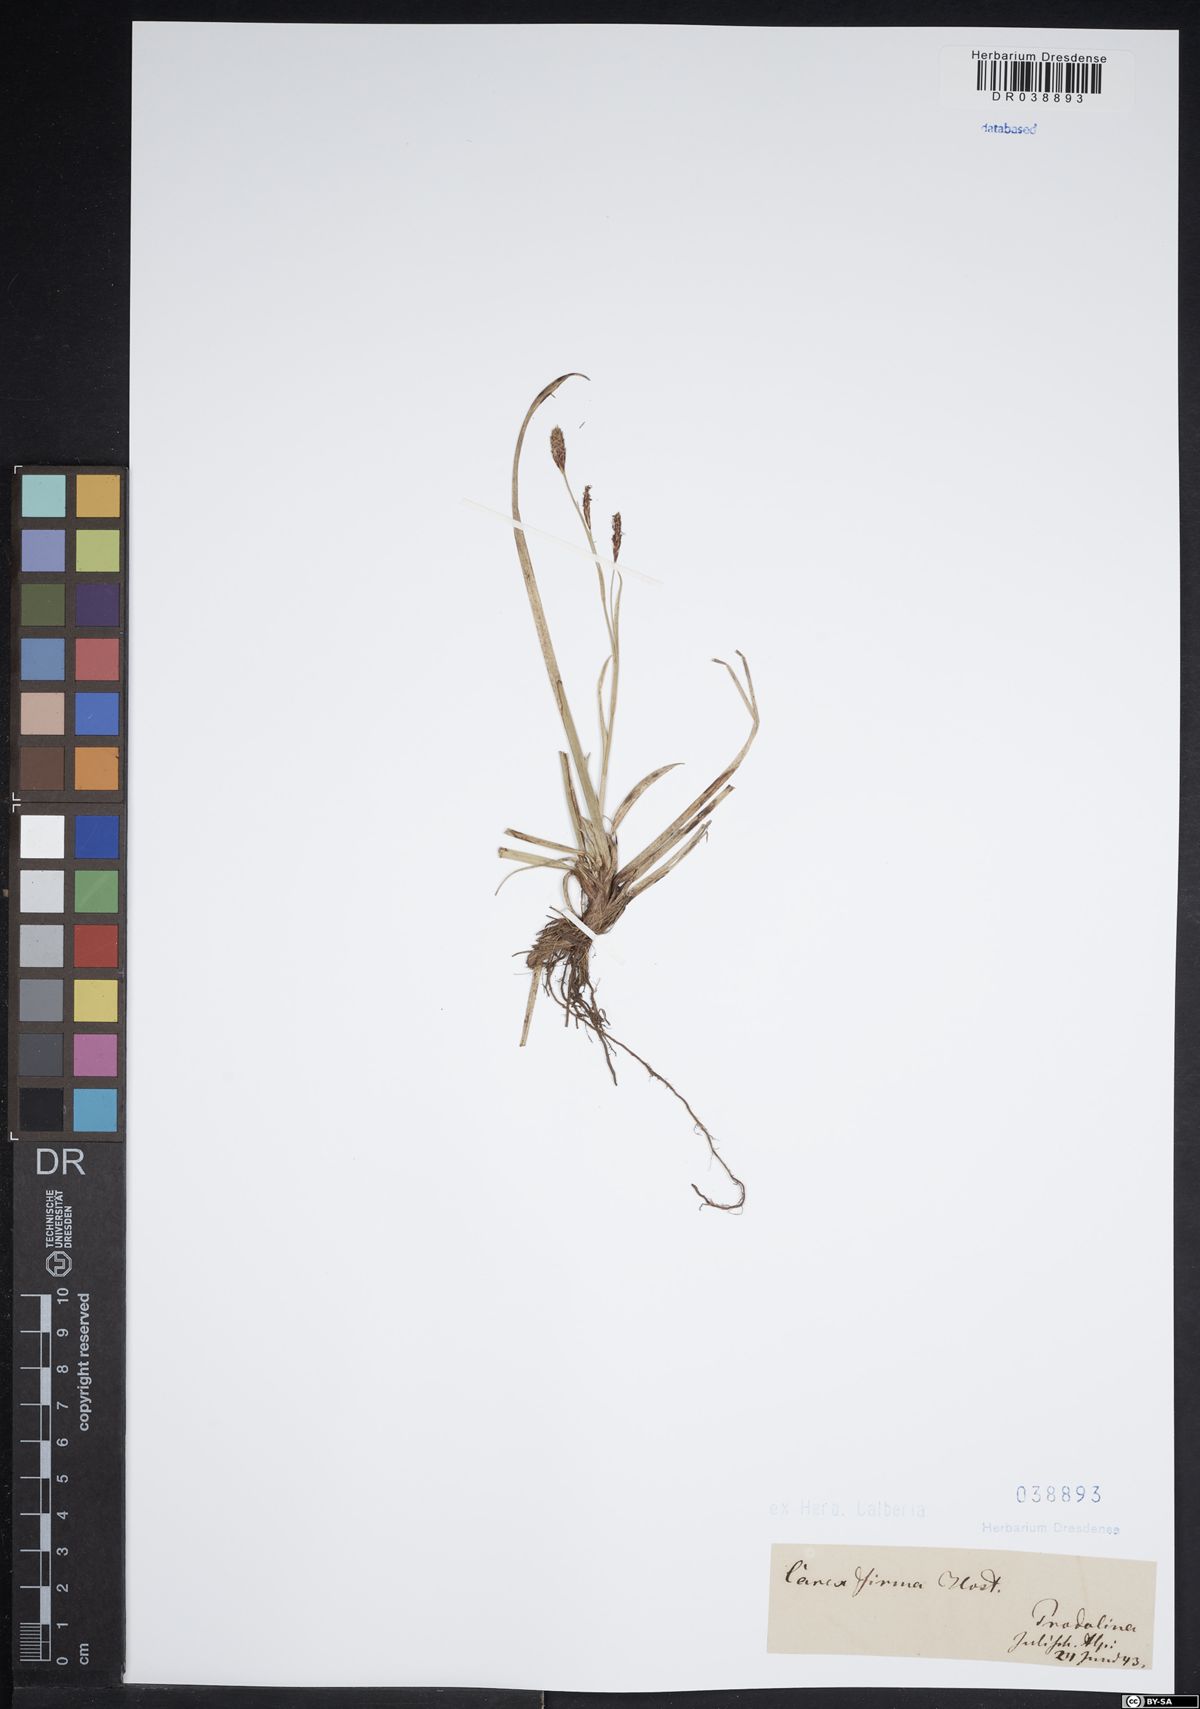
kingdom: Plantae
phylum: Tracheophyta
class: Liliopsida
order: Poales
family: Cyperaceae
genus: Carex
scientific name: Carex firma
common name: Dwarf pillow sedge
